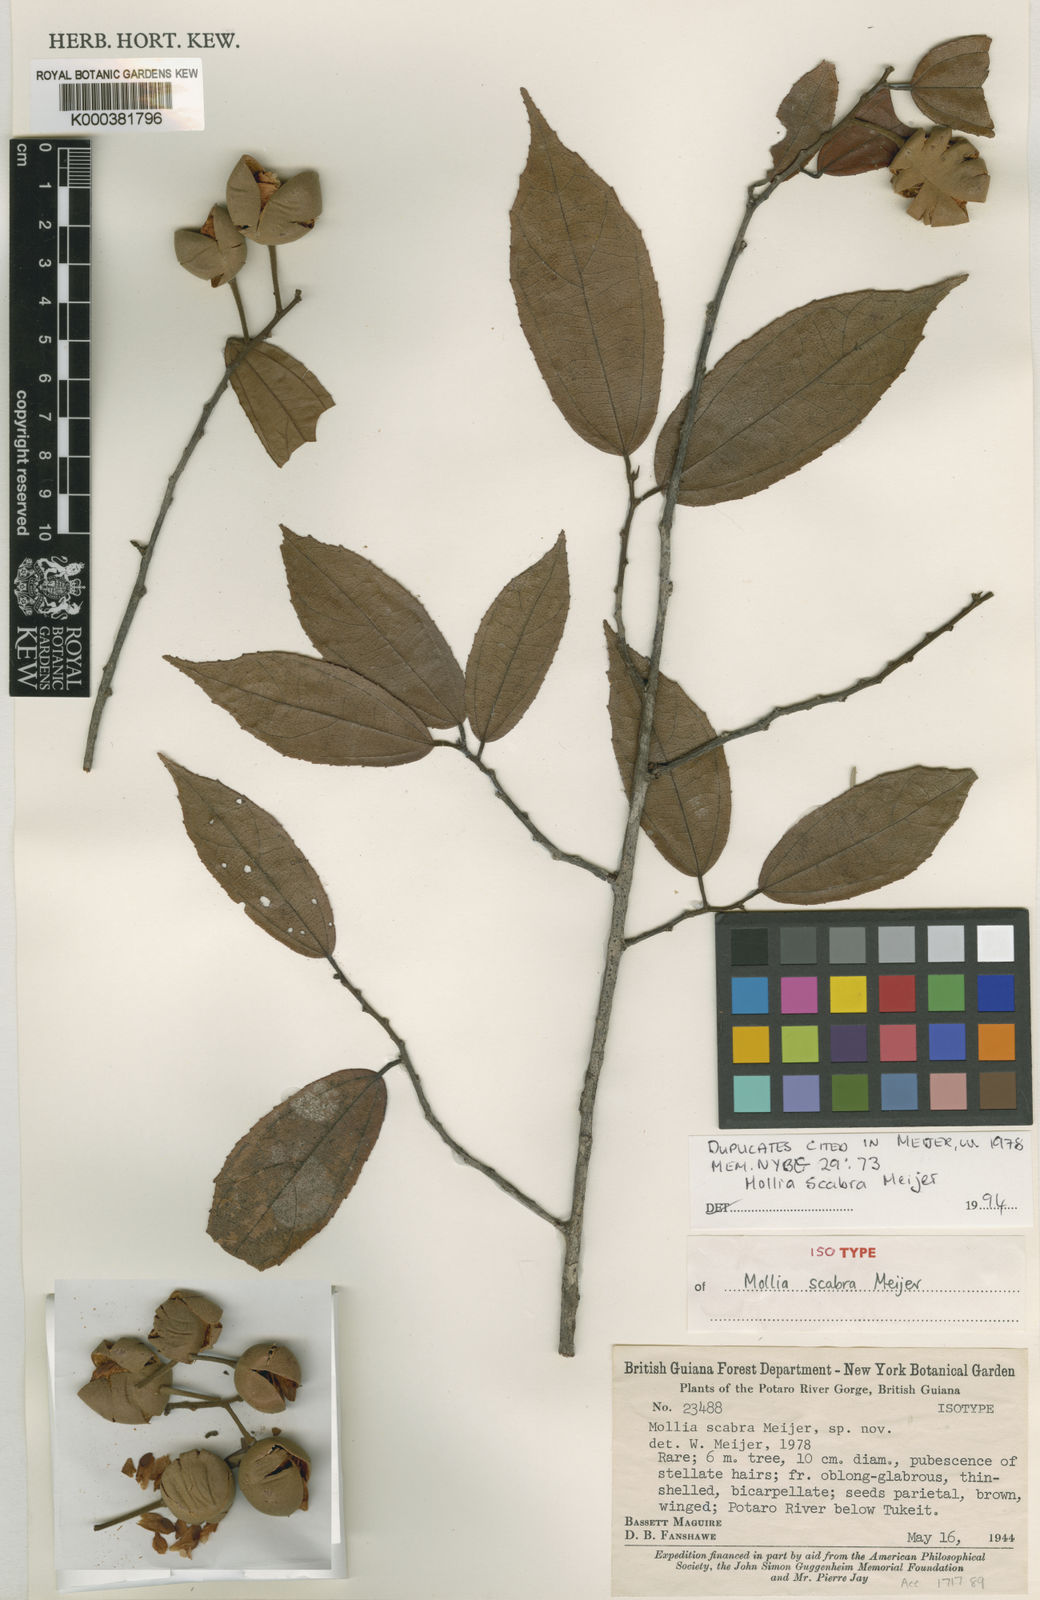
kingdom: Plantae
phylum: Tracheophyta
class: Magnoliopsida
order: Malvales
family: Malvaceae
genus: Mollia
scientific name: Mollia ulei
